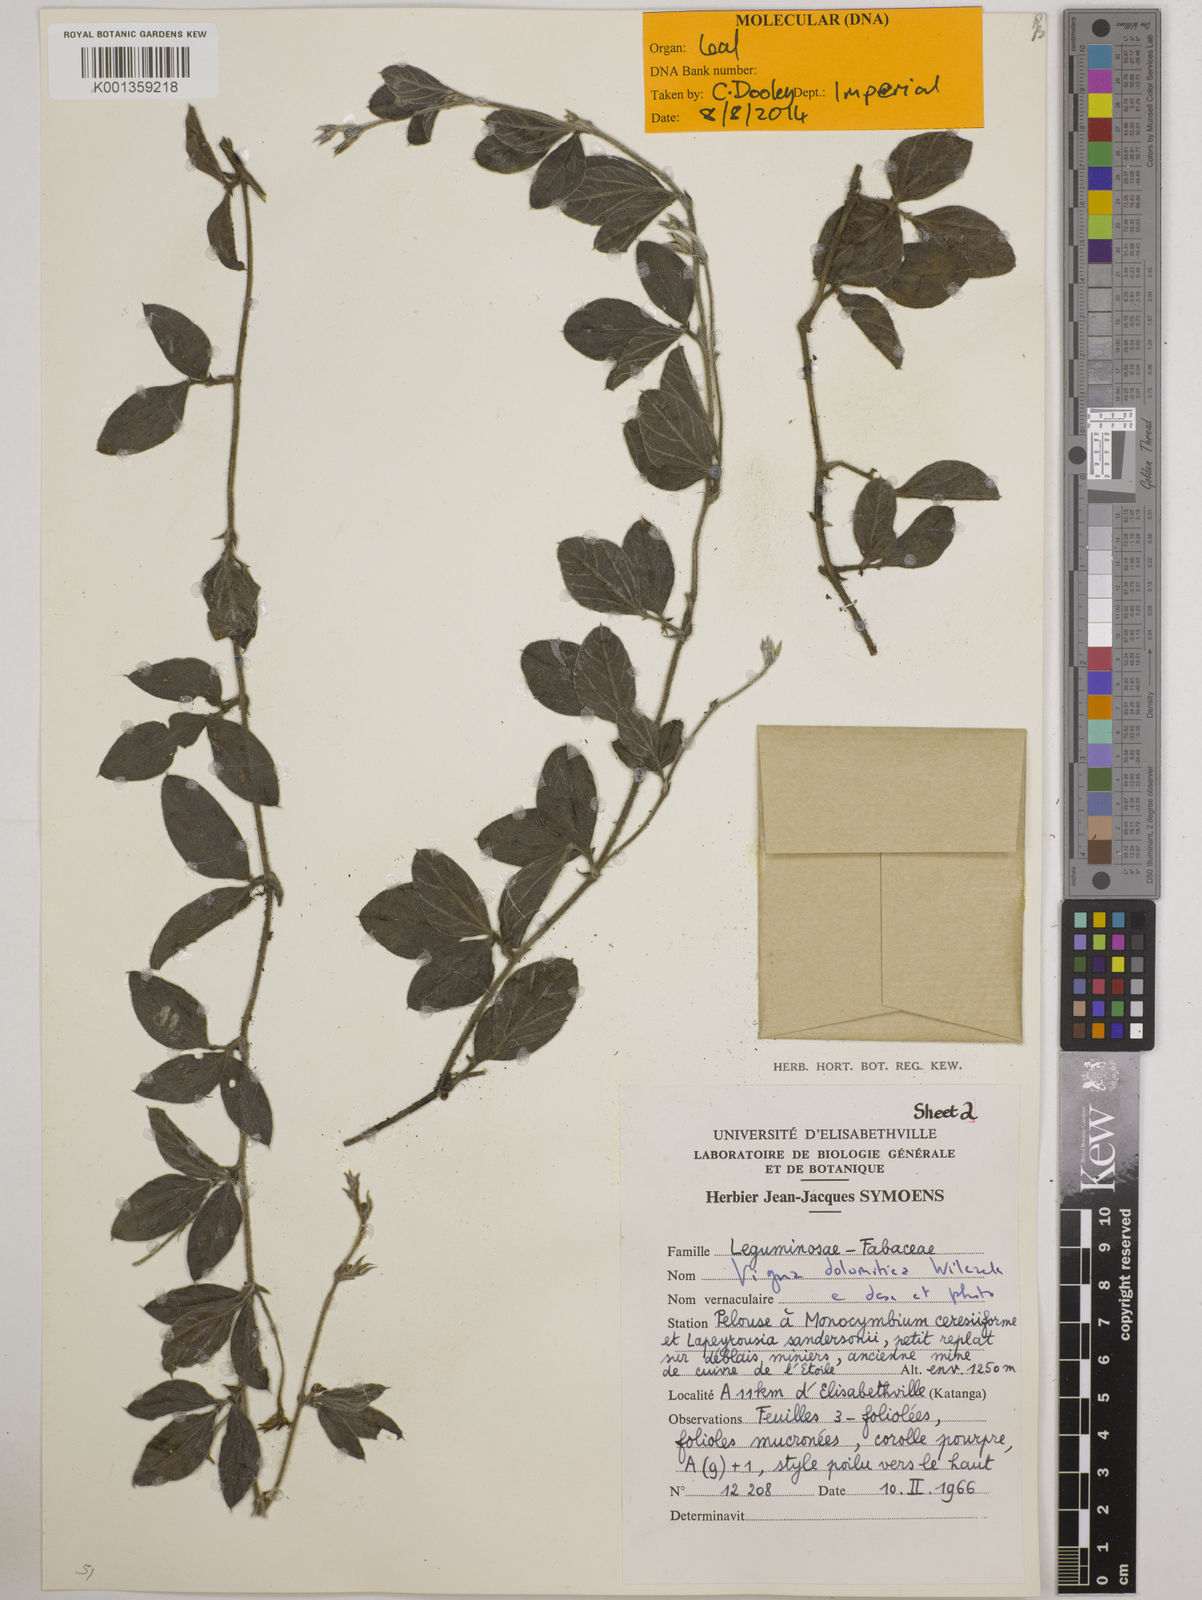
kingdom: Plantae
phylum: Tracheophyta
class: Magnoliopsida
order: Fabales
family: Fabaceae
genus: Vigna
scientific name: Vigna dolomitica
